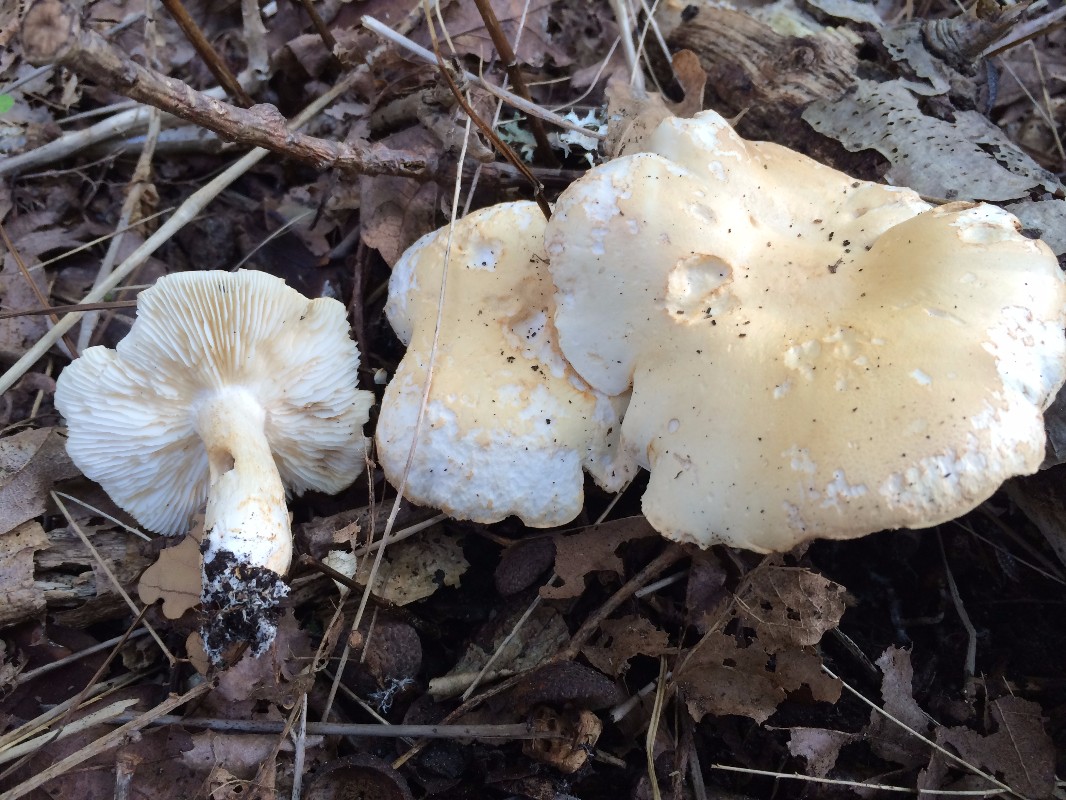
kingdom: Fungi
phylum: Basidiomycota
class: Agaricomycetes
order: Agaricales
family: Tricholomataceae
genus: Tricholoma
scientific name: Tricholoma album
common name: honning-ridderhat
